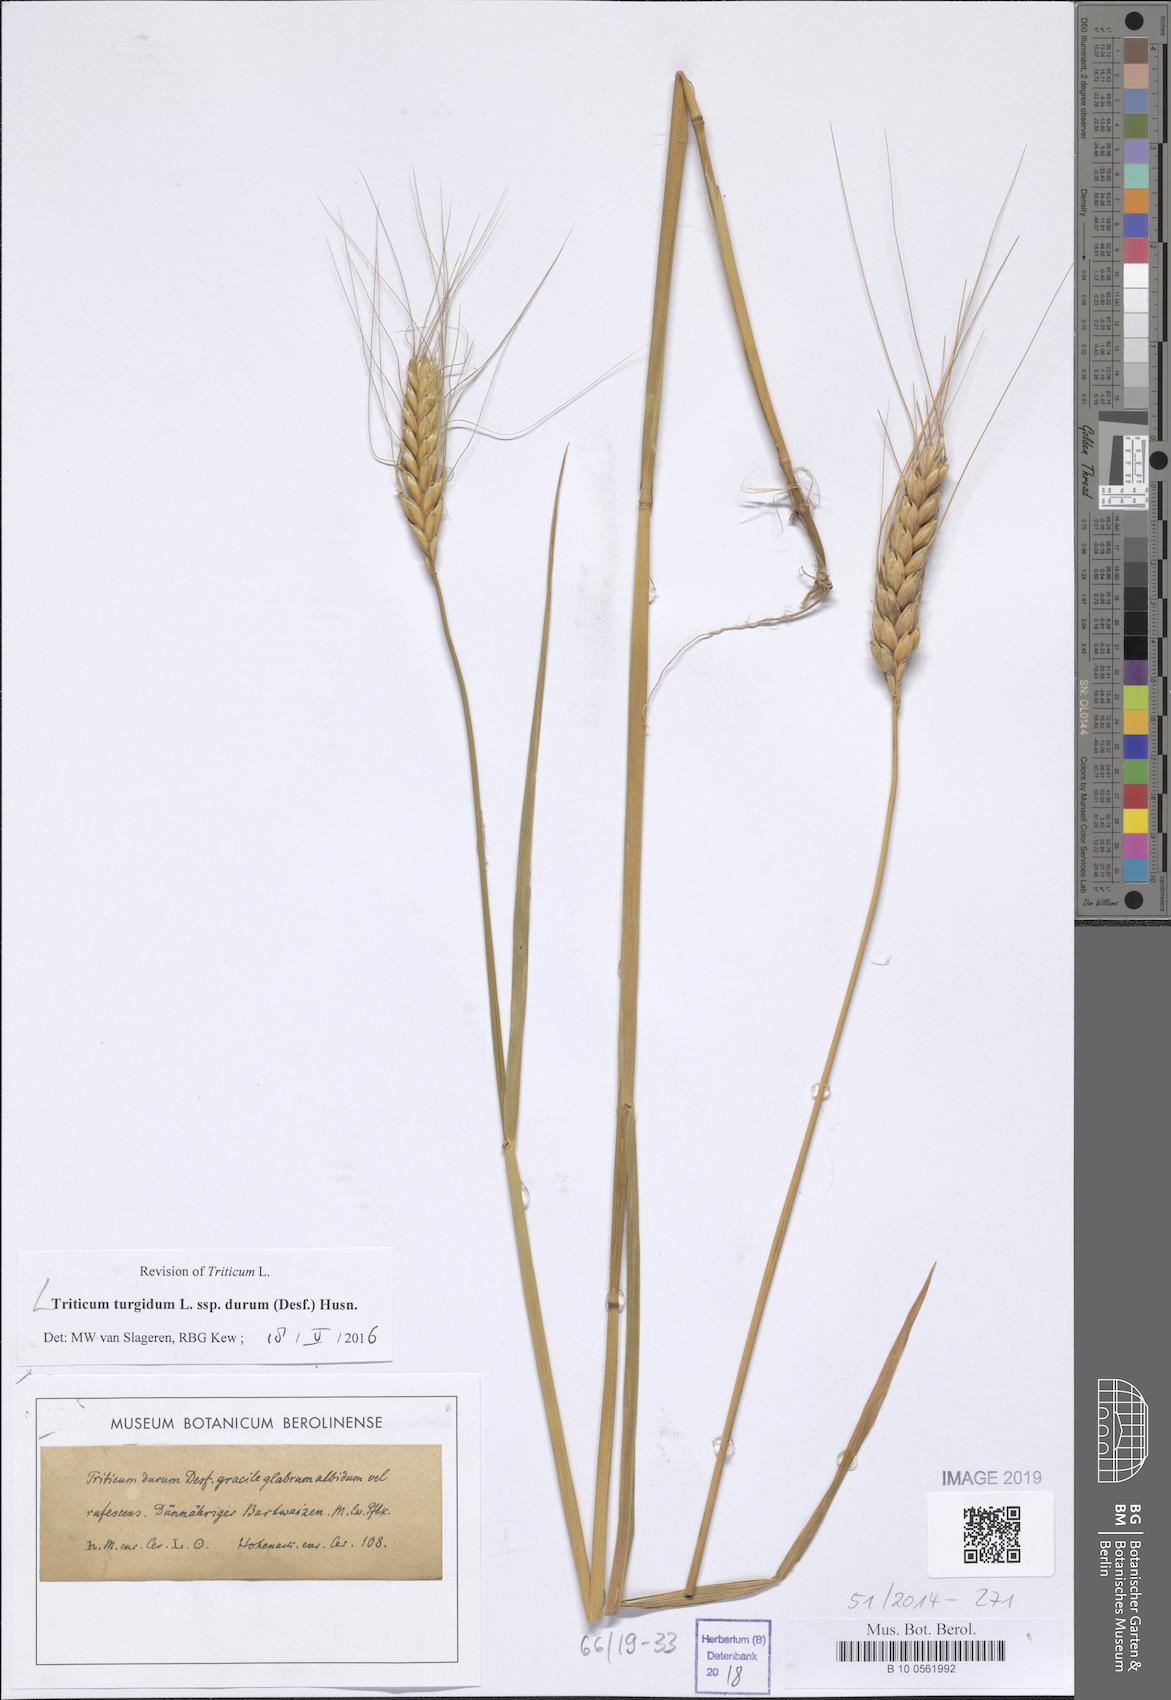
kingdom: Plantae
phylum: Tracheophyta
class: Liliopsida
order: Poales
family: Poaceae
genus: Triticum
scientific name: Triticum turgidum
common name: Rivet wheat
